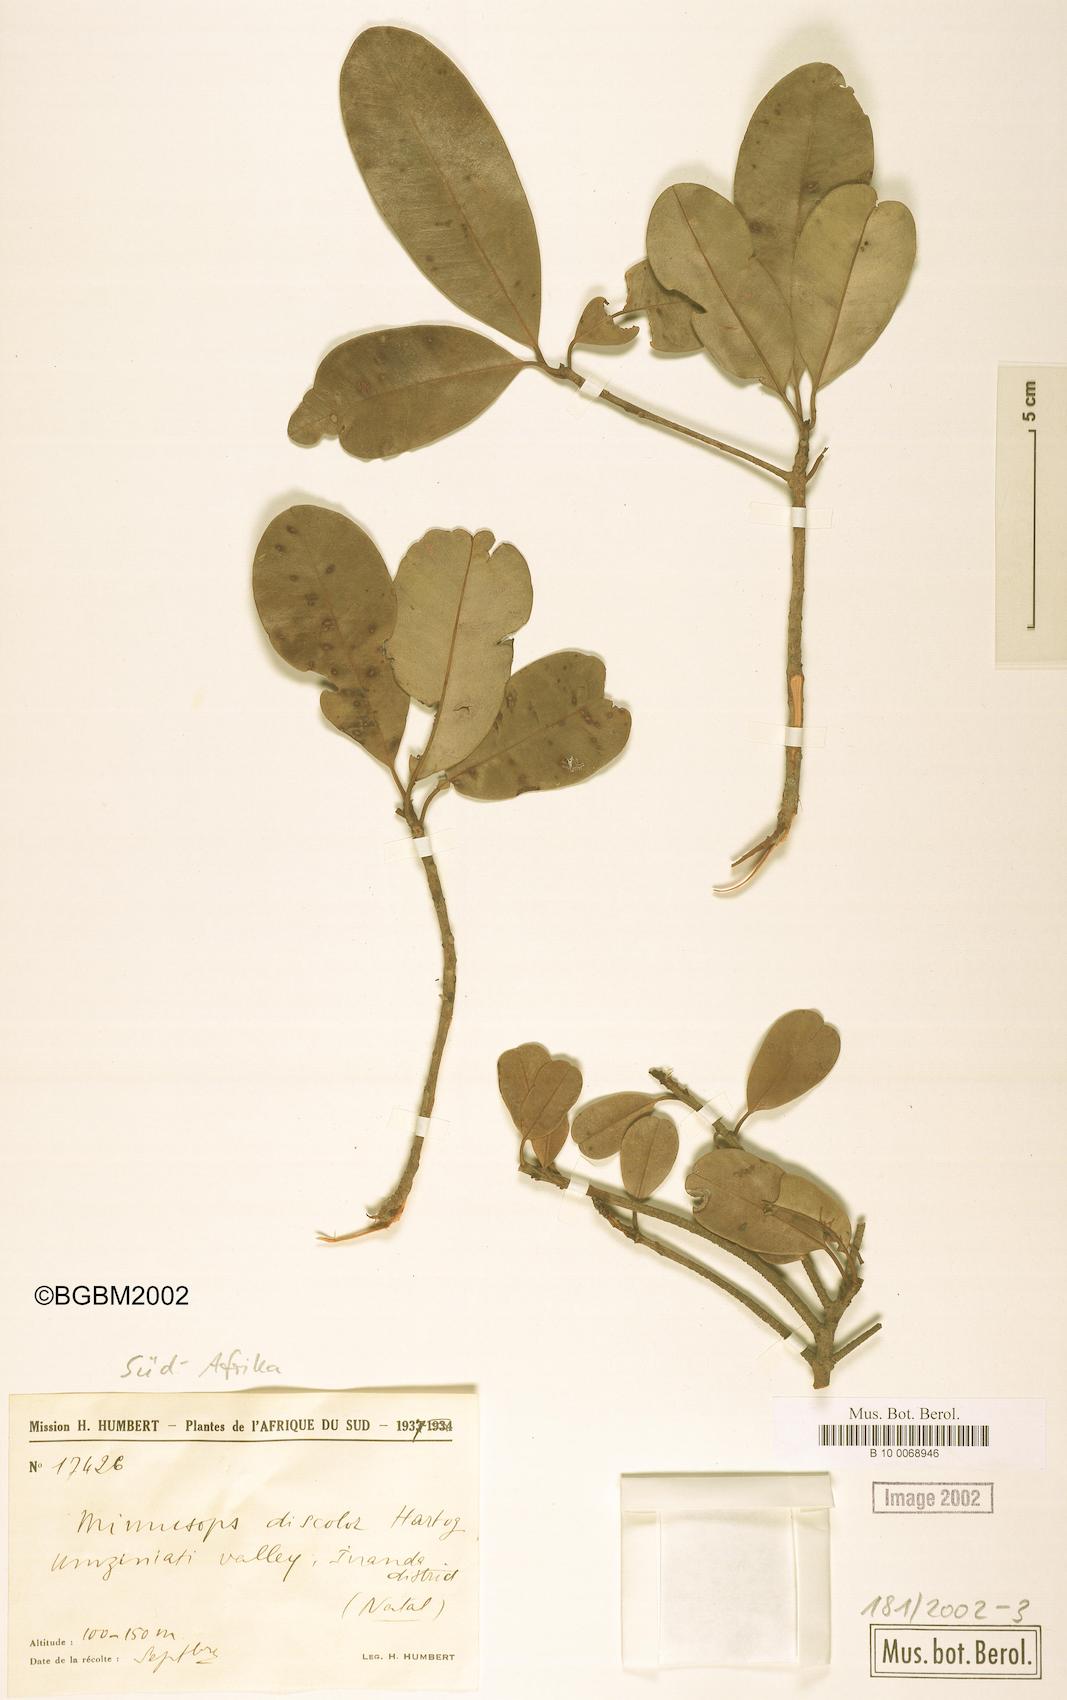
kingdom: Plantae
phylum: Tracheophyta
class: Magnoliopsida
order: Ericales
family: Sapotaceae
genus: Manilkara
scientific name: Manilkara discolor
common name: Forest milkberry
